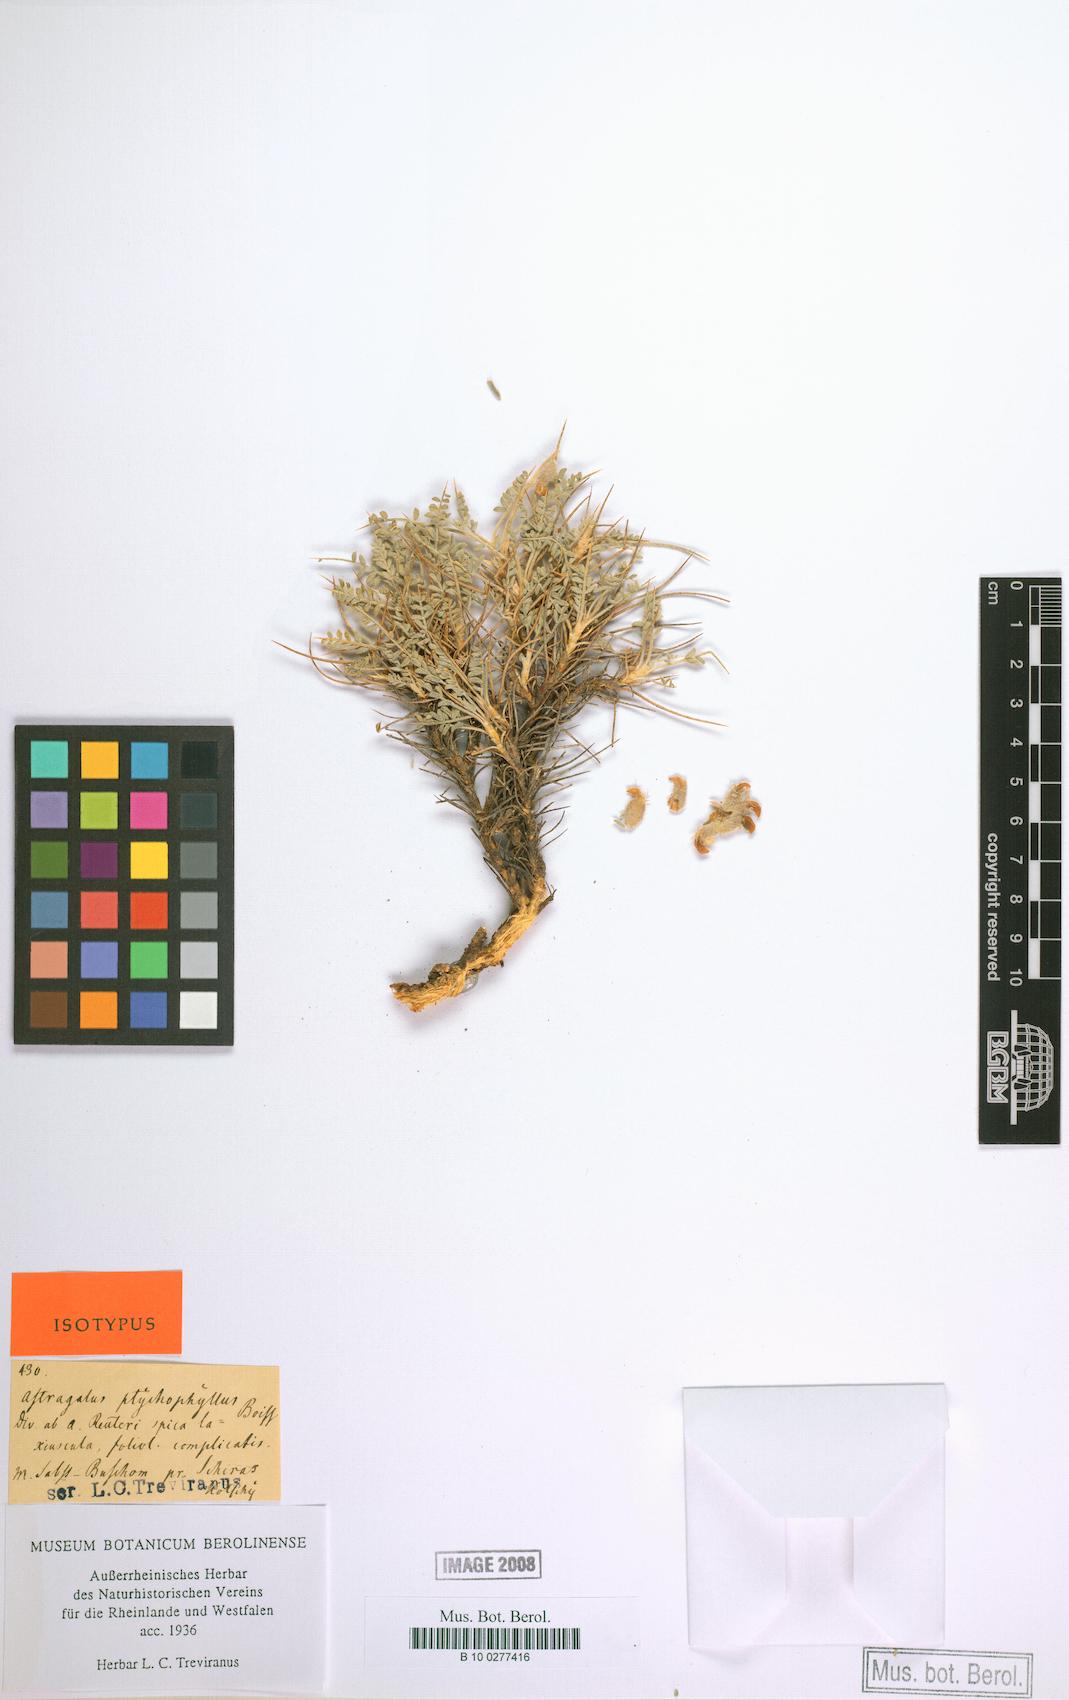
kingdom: Plantae
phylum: Tracheophyta
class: Magnoliopsida
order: Fabales
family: Fabaceae
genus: Astragalus
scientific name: Astragalus ptychophyllus
